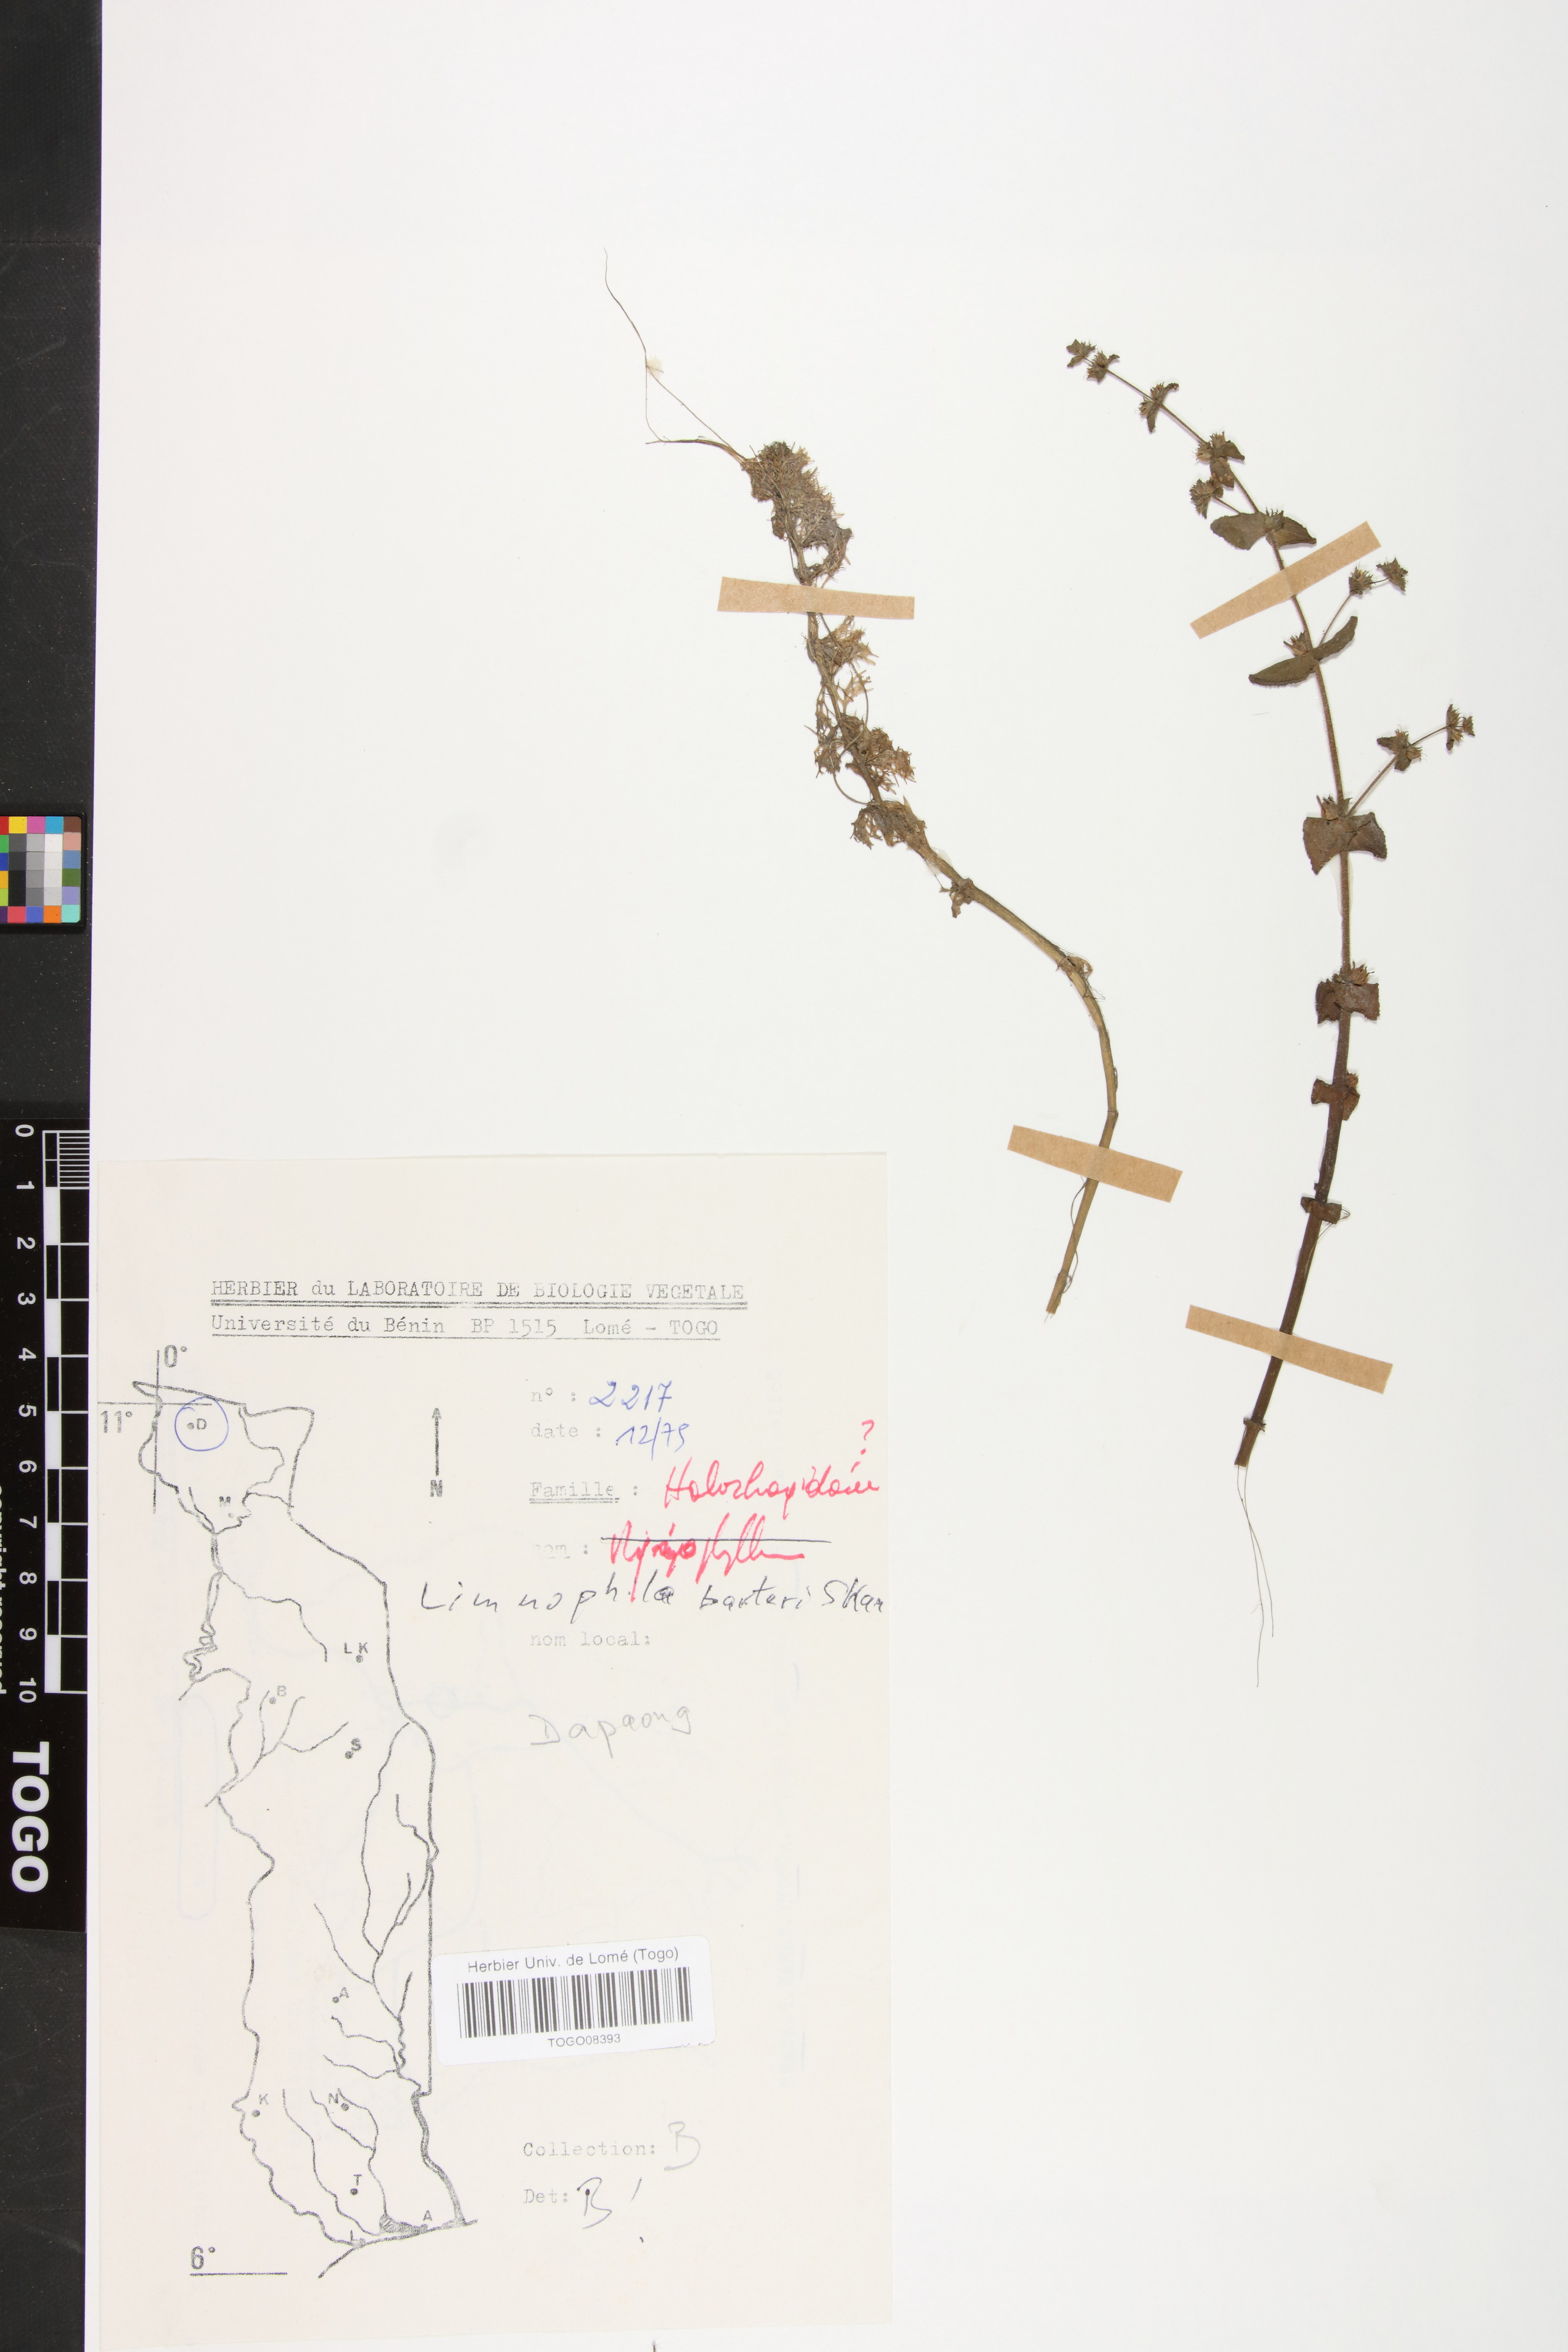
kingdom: Plantae
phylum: Tracheophyta
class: Magnoliopsida
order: Lamiales
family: Plantaginaceae
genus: Limnophila
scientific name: Limnophila barteri
